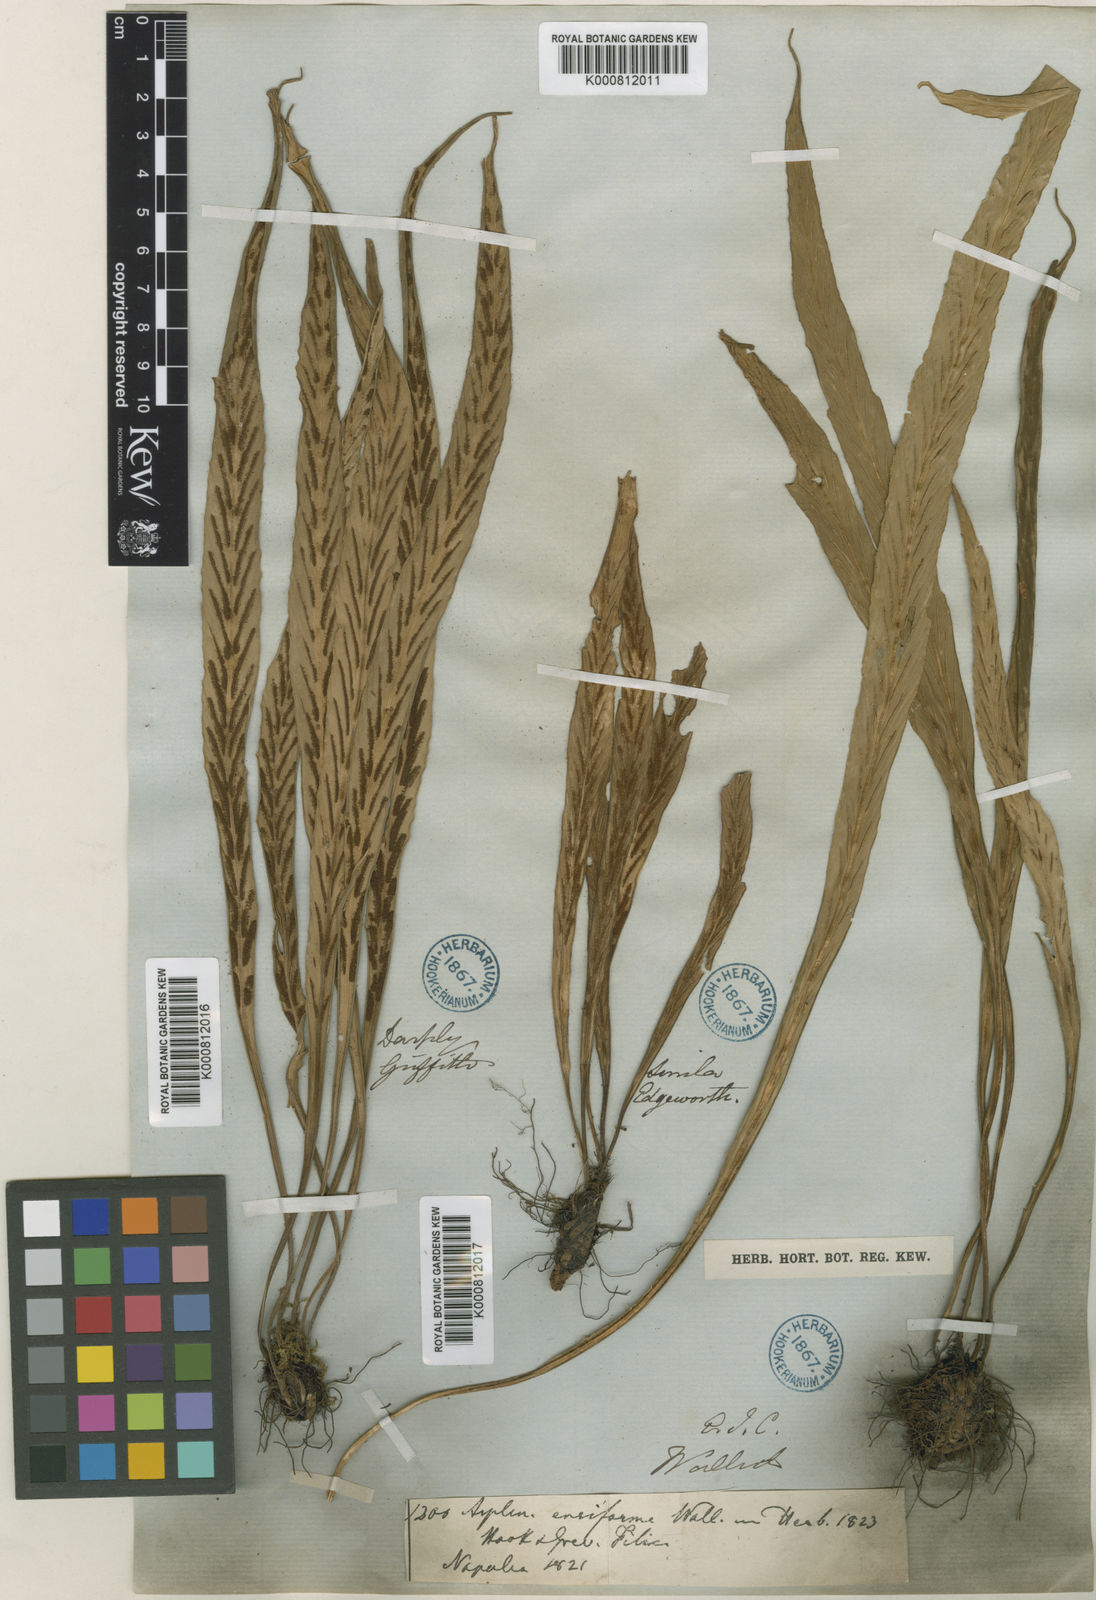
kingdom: Plantae
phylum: Tracheophyta
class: Polypodiopsida
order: Polypodiales
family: Aspleniaceae
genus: Asplenium
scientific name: Asplenium ensiforme
